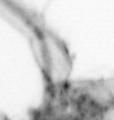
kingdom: Animalia
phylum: Annelida
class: Polychaeta
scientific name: Polychaeta
